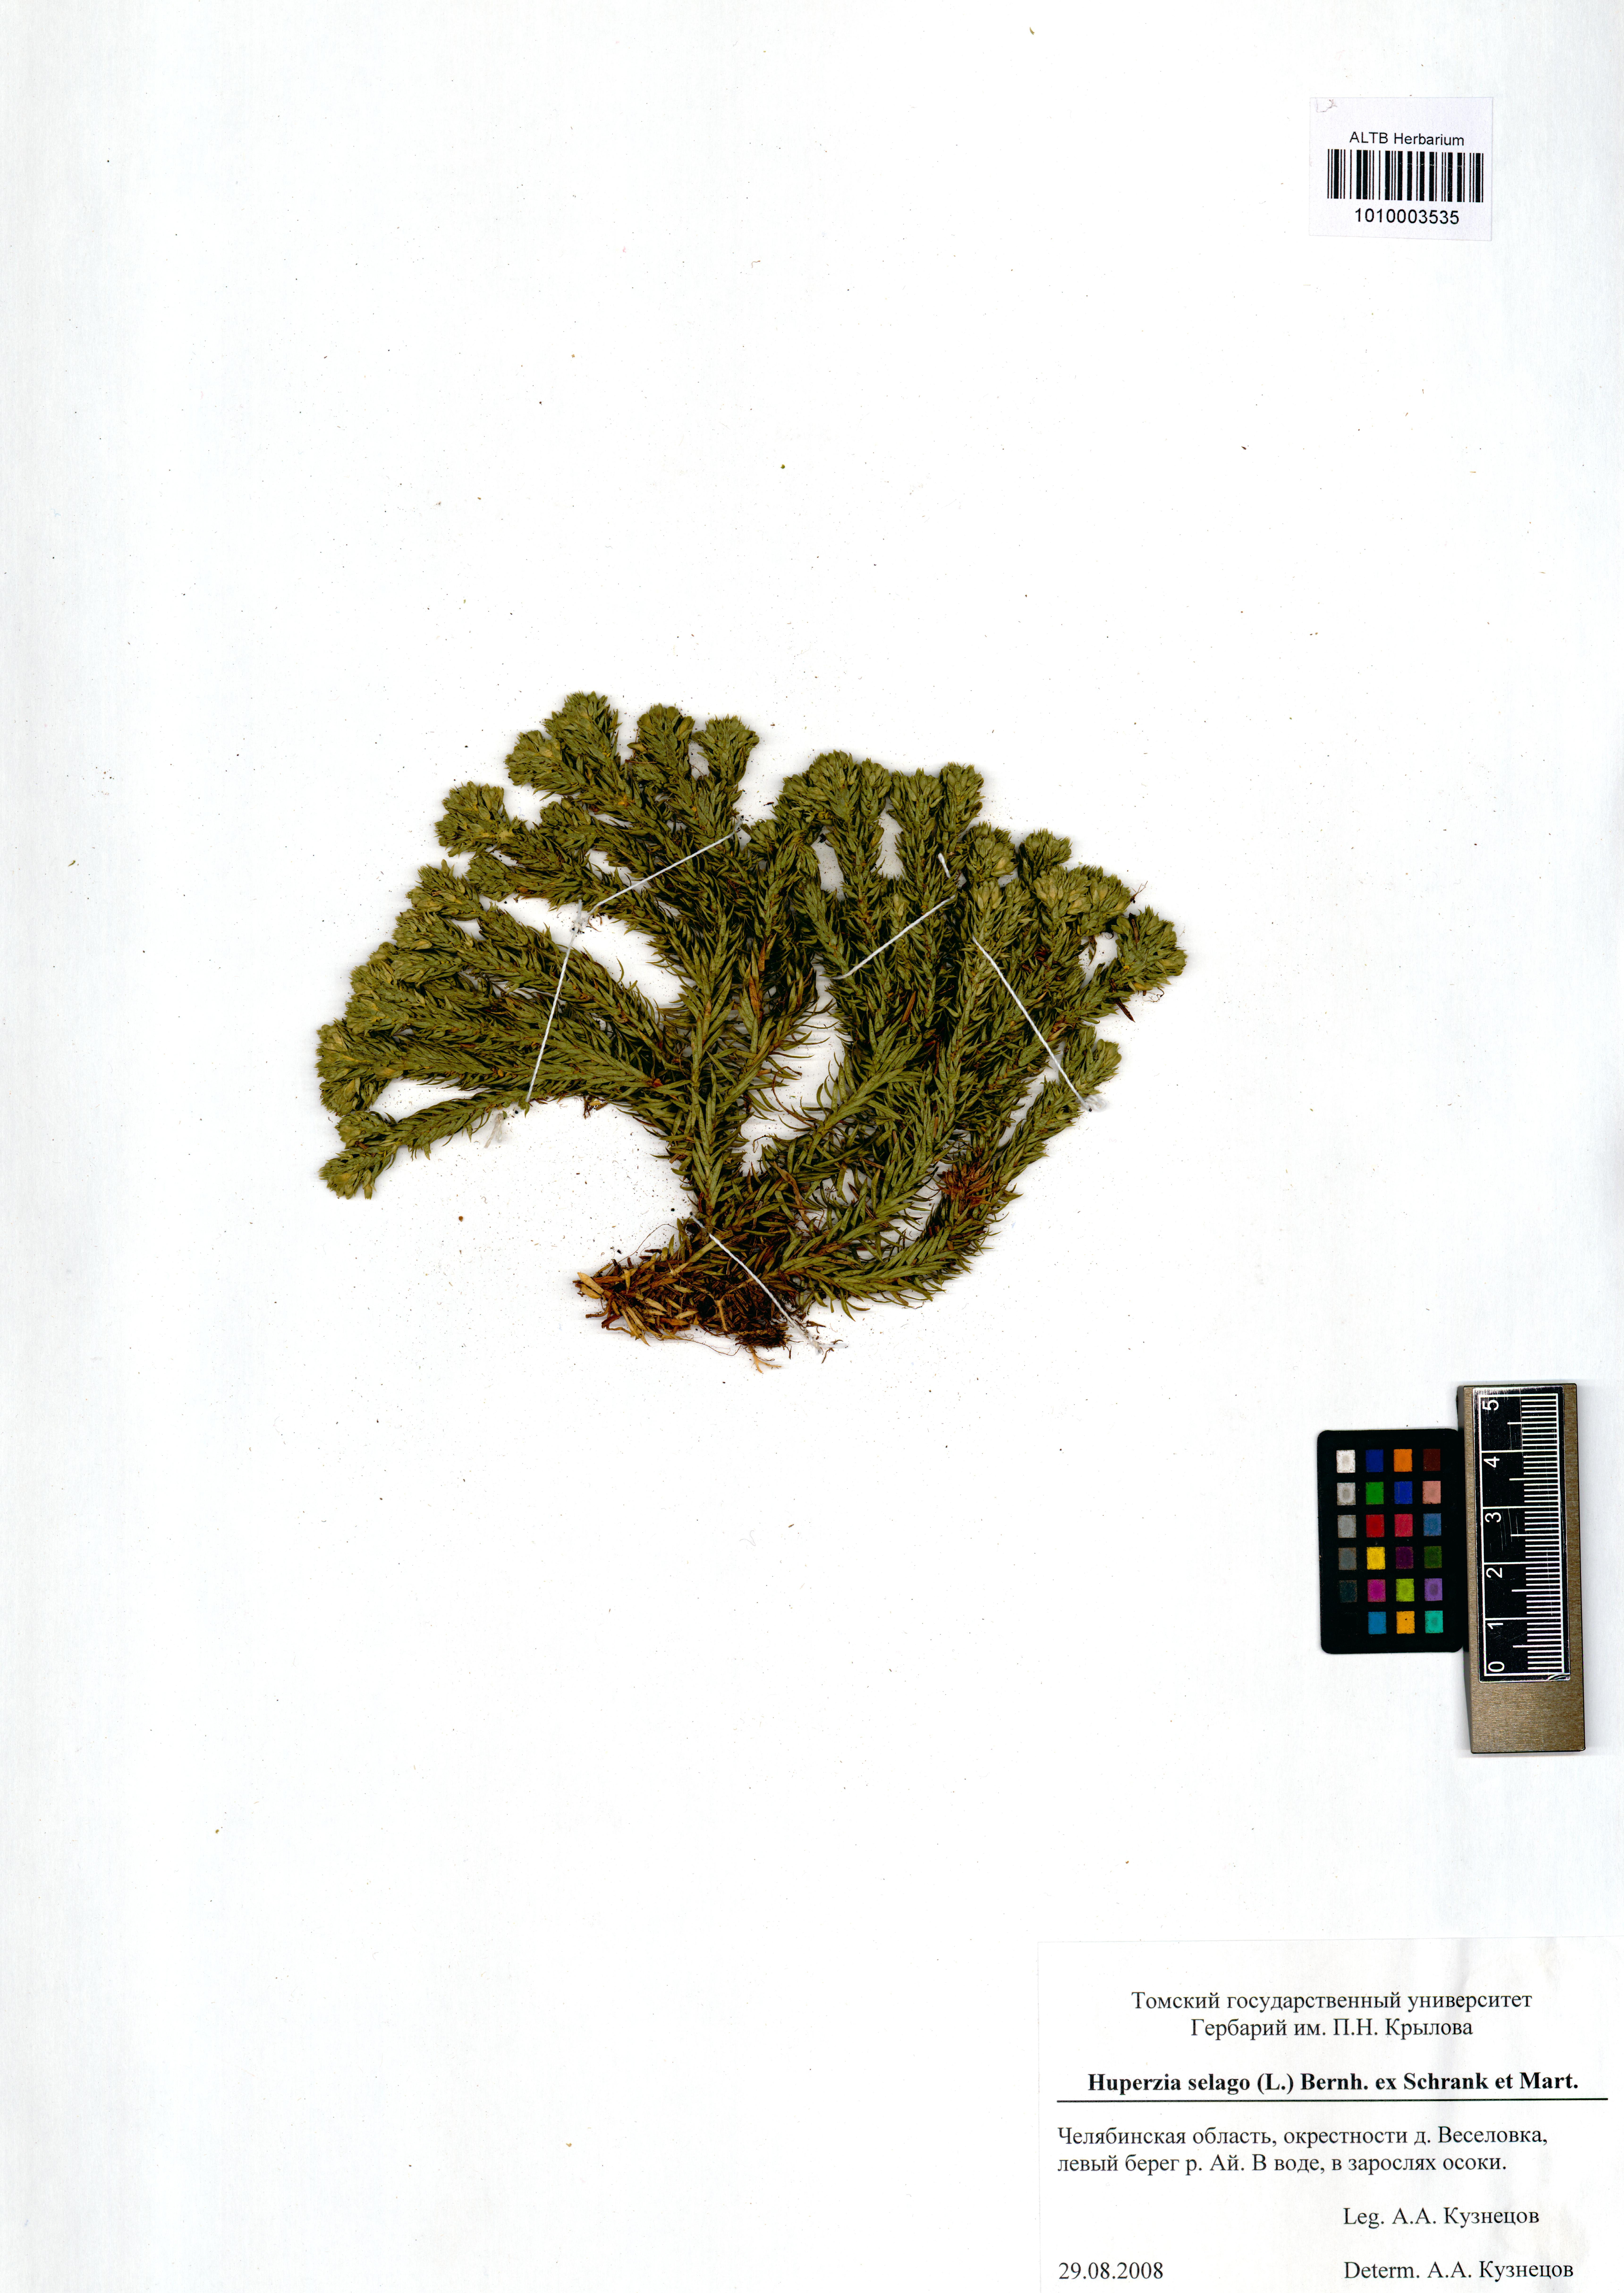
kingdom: Plantae
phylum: Tracheophyta
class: Lycopodiopsida
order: Lycopodiales
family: Lycopodiaceae
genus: Huperzia
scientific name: Huperzia selago
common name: Northern firmoss
